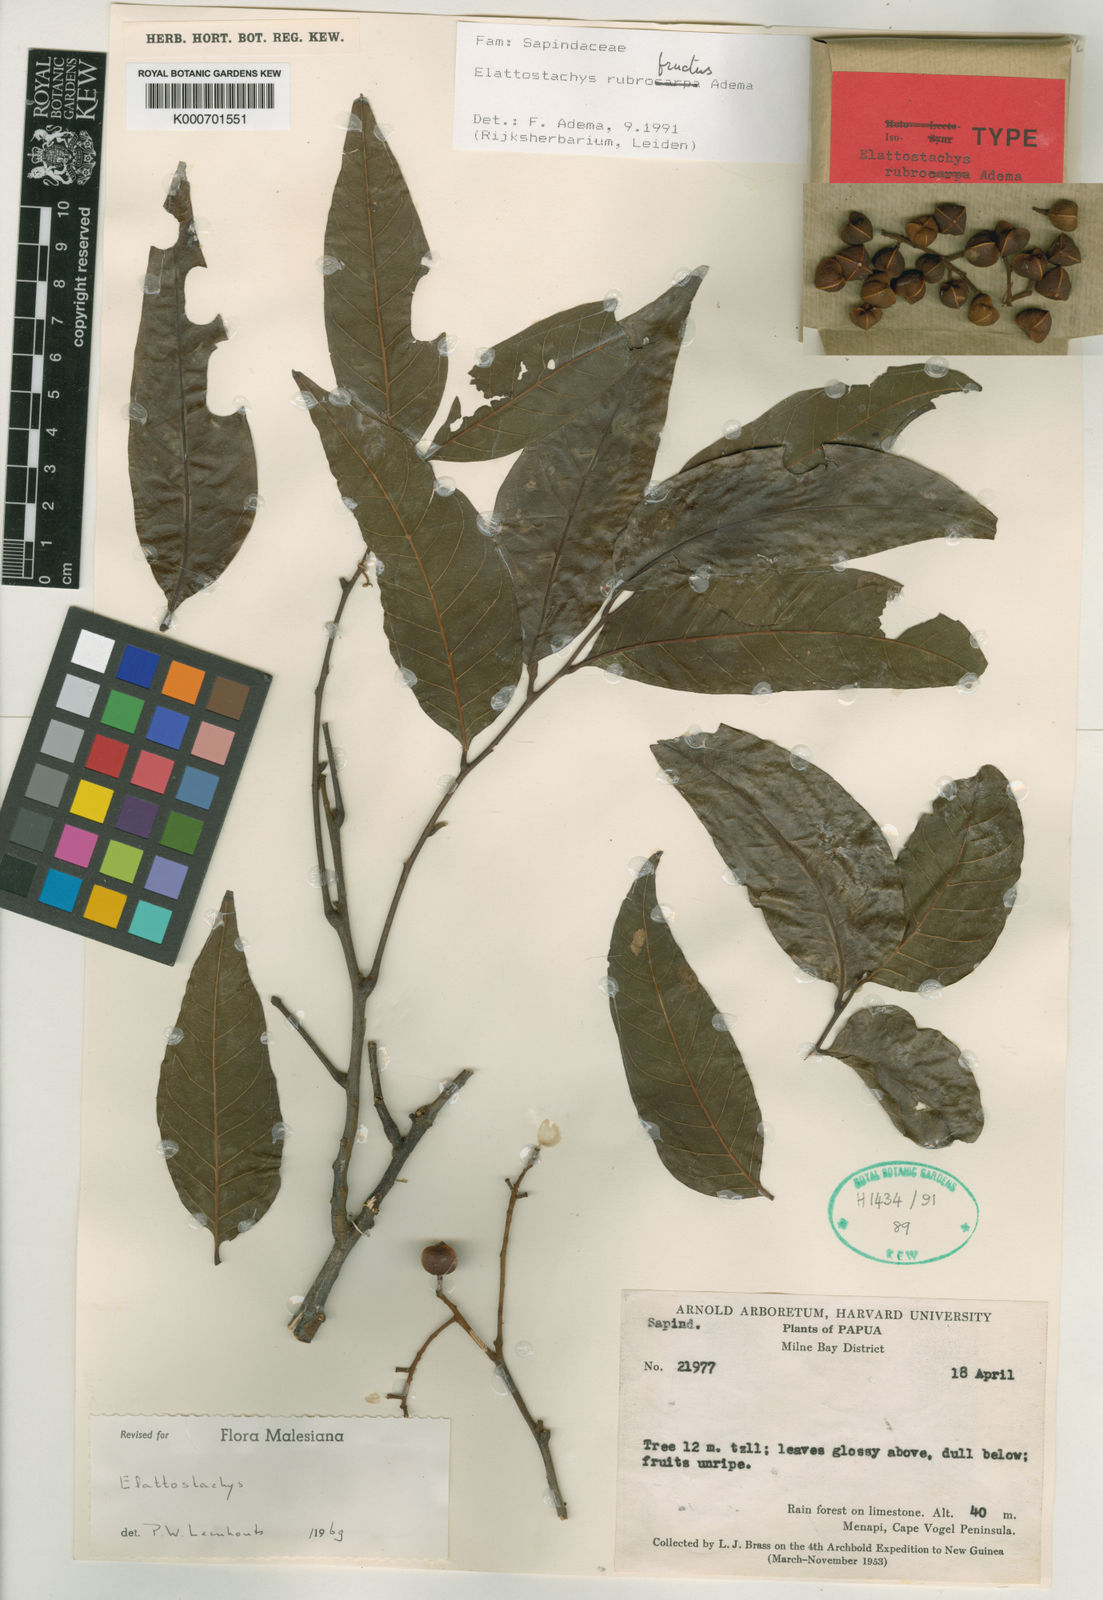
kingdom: Plantae
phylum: Tracheophyta
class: Magnoliopsida
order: Sapindales
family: Sapindaceae
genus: Elattostachys
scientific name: Elattostachys rubrofructus
